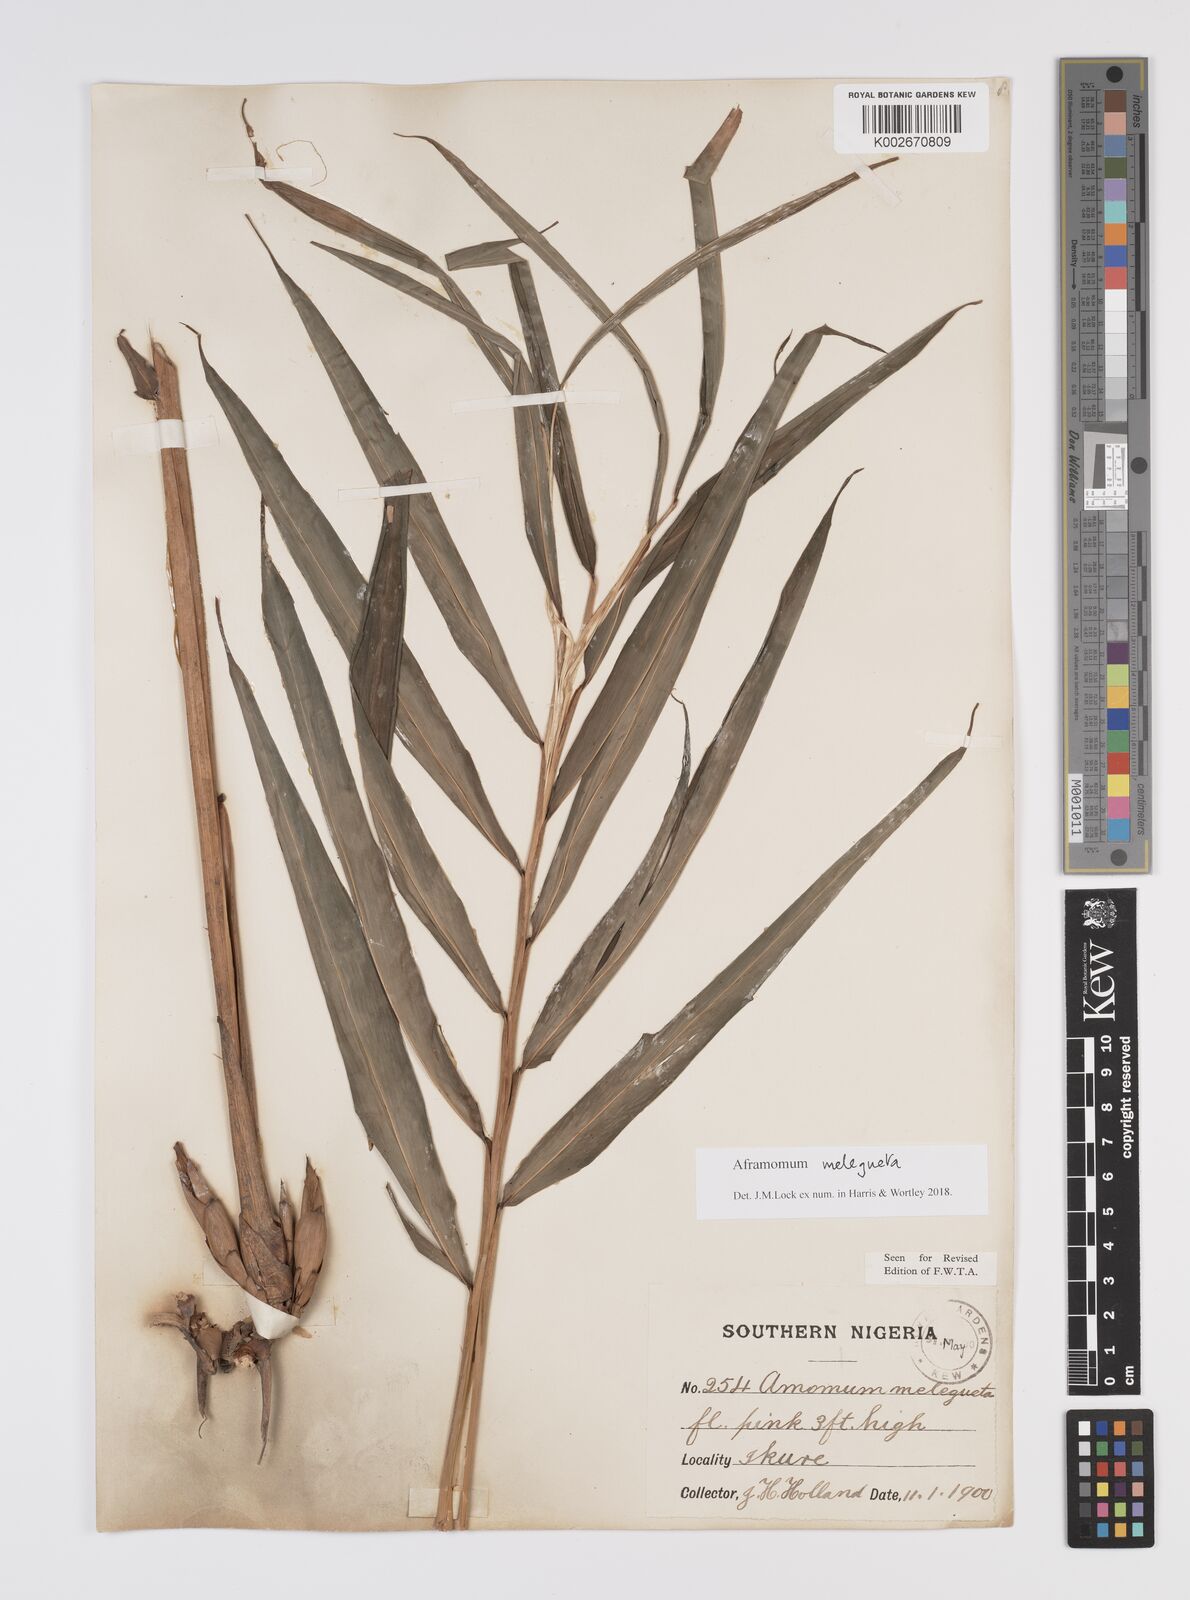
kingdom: Plantae
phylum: Tracheophyta
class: Liliopsida
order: Zingiberales
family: Zingiberaceae
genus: Aframomum
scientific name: Aframomum melegueta
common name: Grains of paradise
